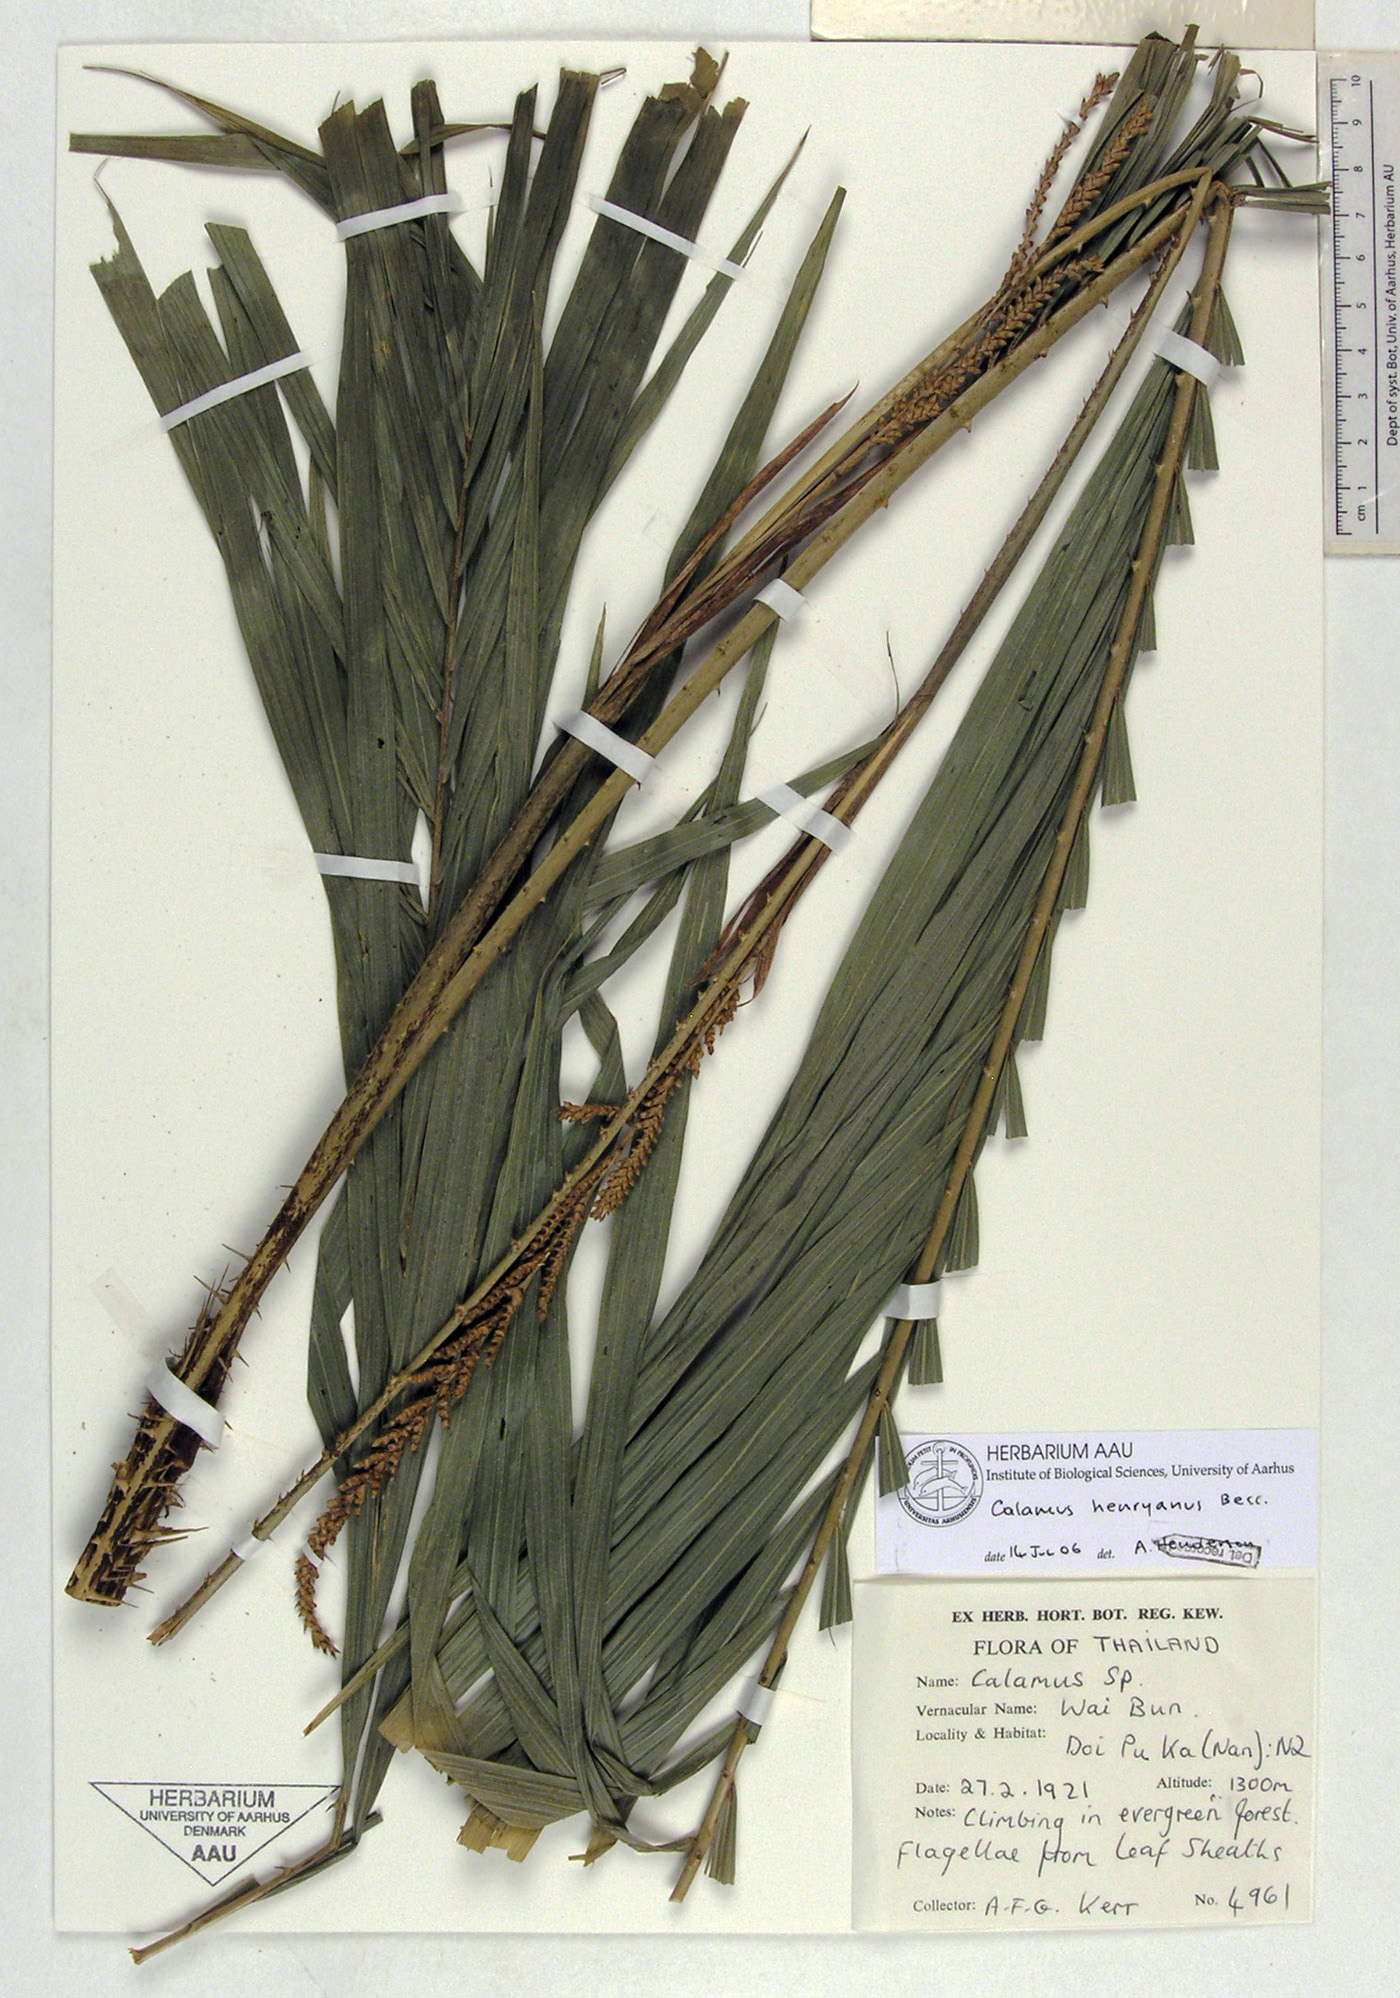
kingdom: Plantae
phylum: Tracheophyta
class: Liliopsida
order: Arecales
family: Arecaceae
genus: Calamus
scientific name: Calamus henryanus
